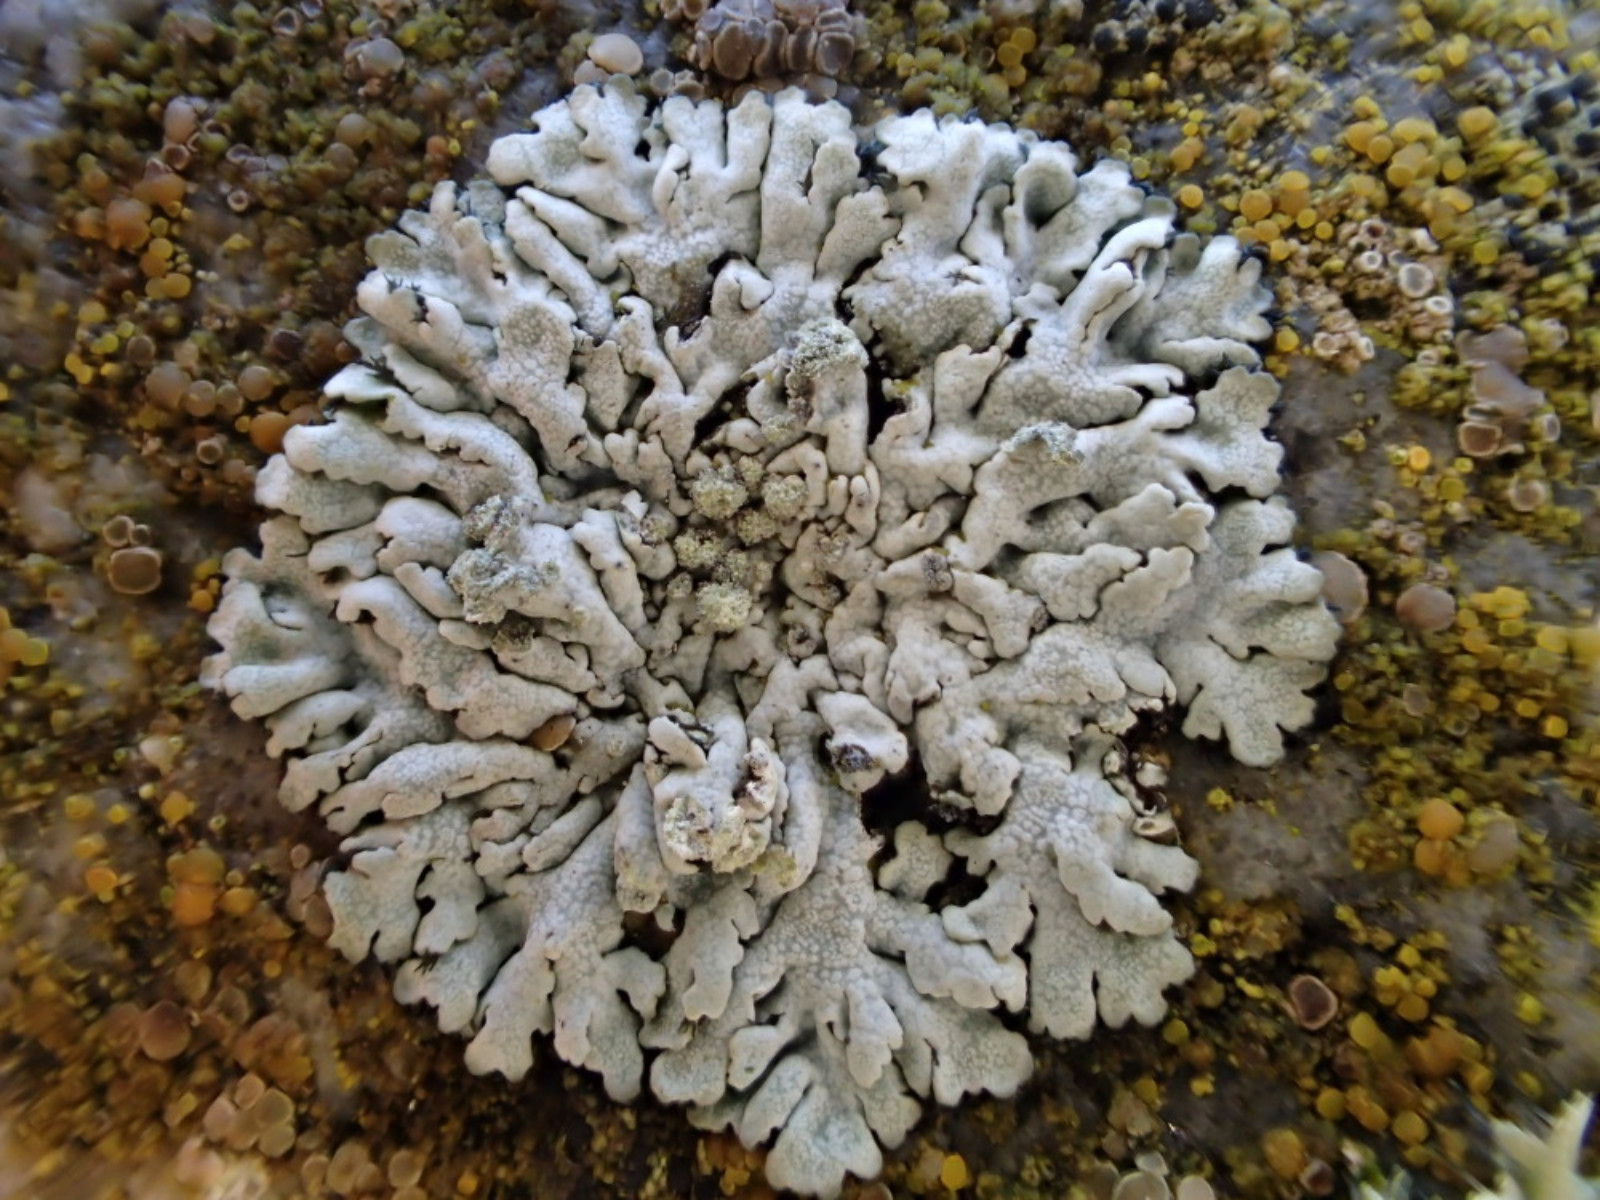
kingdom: Fungi
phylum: Ascomycota
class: Lecanoromycetes
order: Caliciales
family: Physciaceae
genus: Physcia
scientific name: Physcia caesia
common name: blågrå rosetlav
